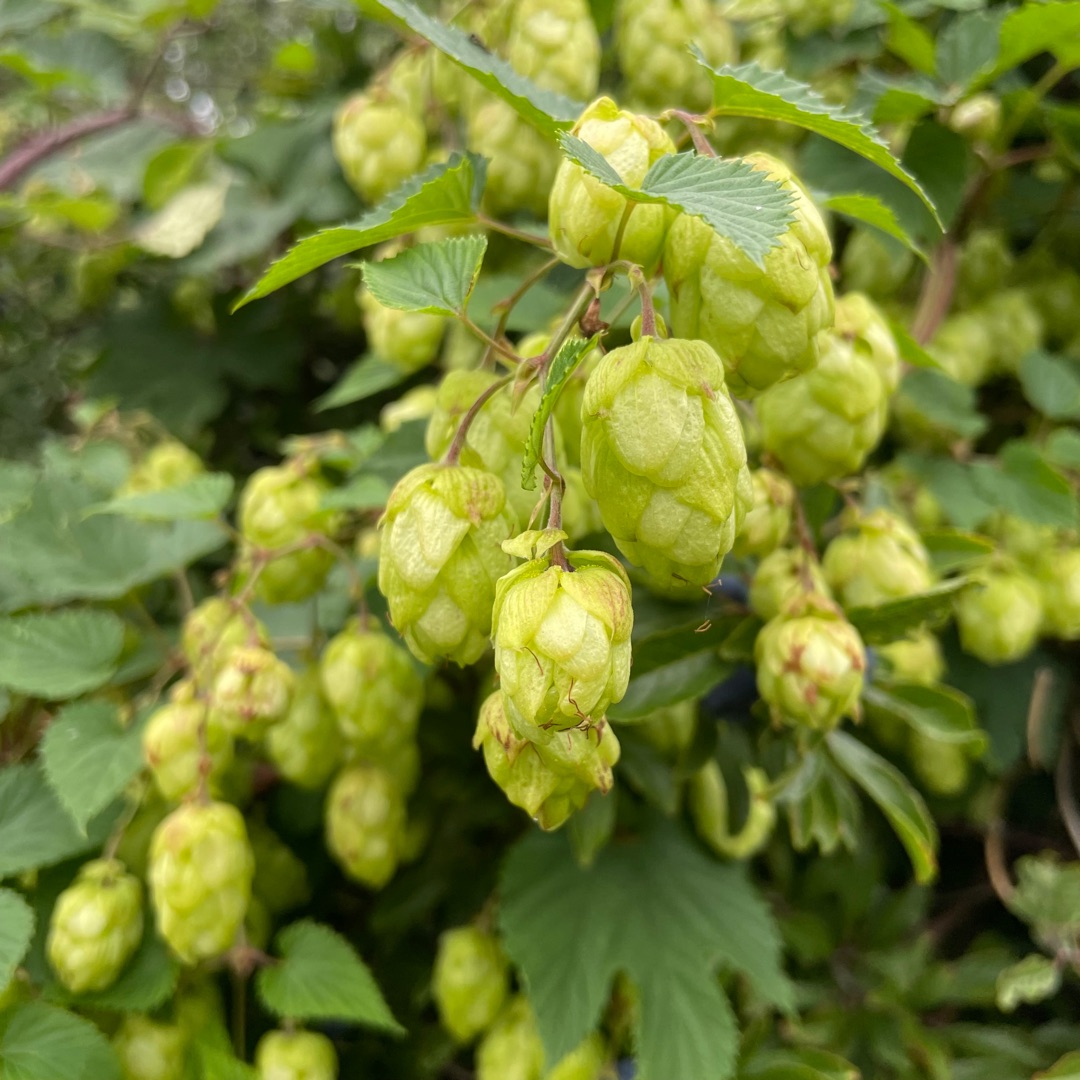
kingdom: Plantae
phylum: Tracheophyta
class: Magnoliopsida
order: Rosales
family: Cannabaceae
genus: Humulus
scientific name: Humulus lupulus
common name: Humle
